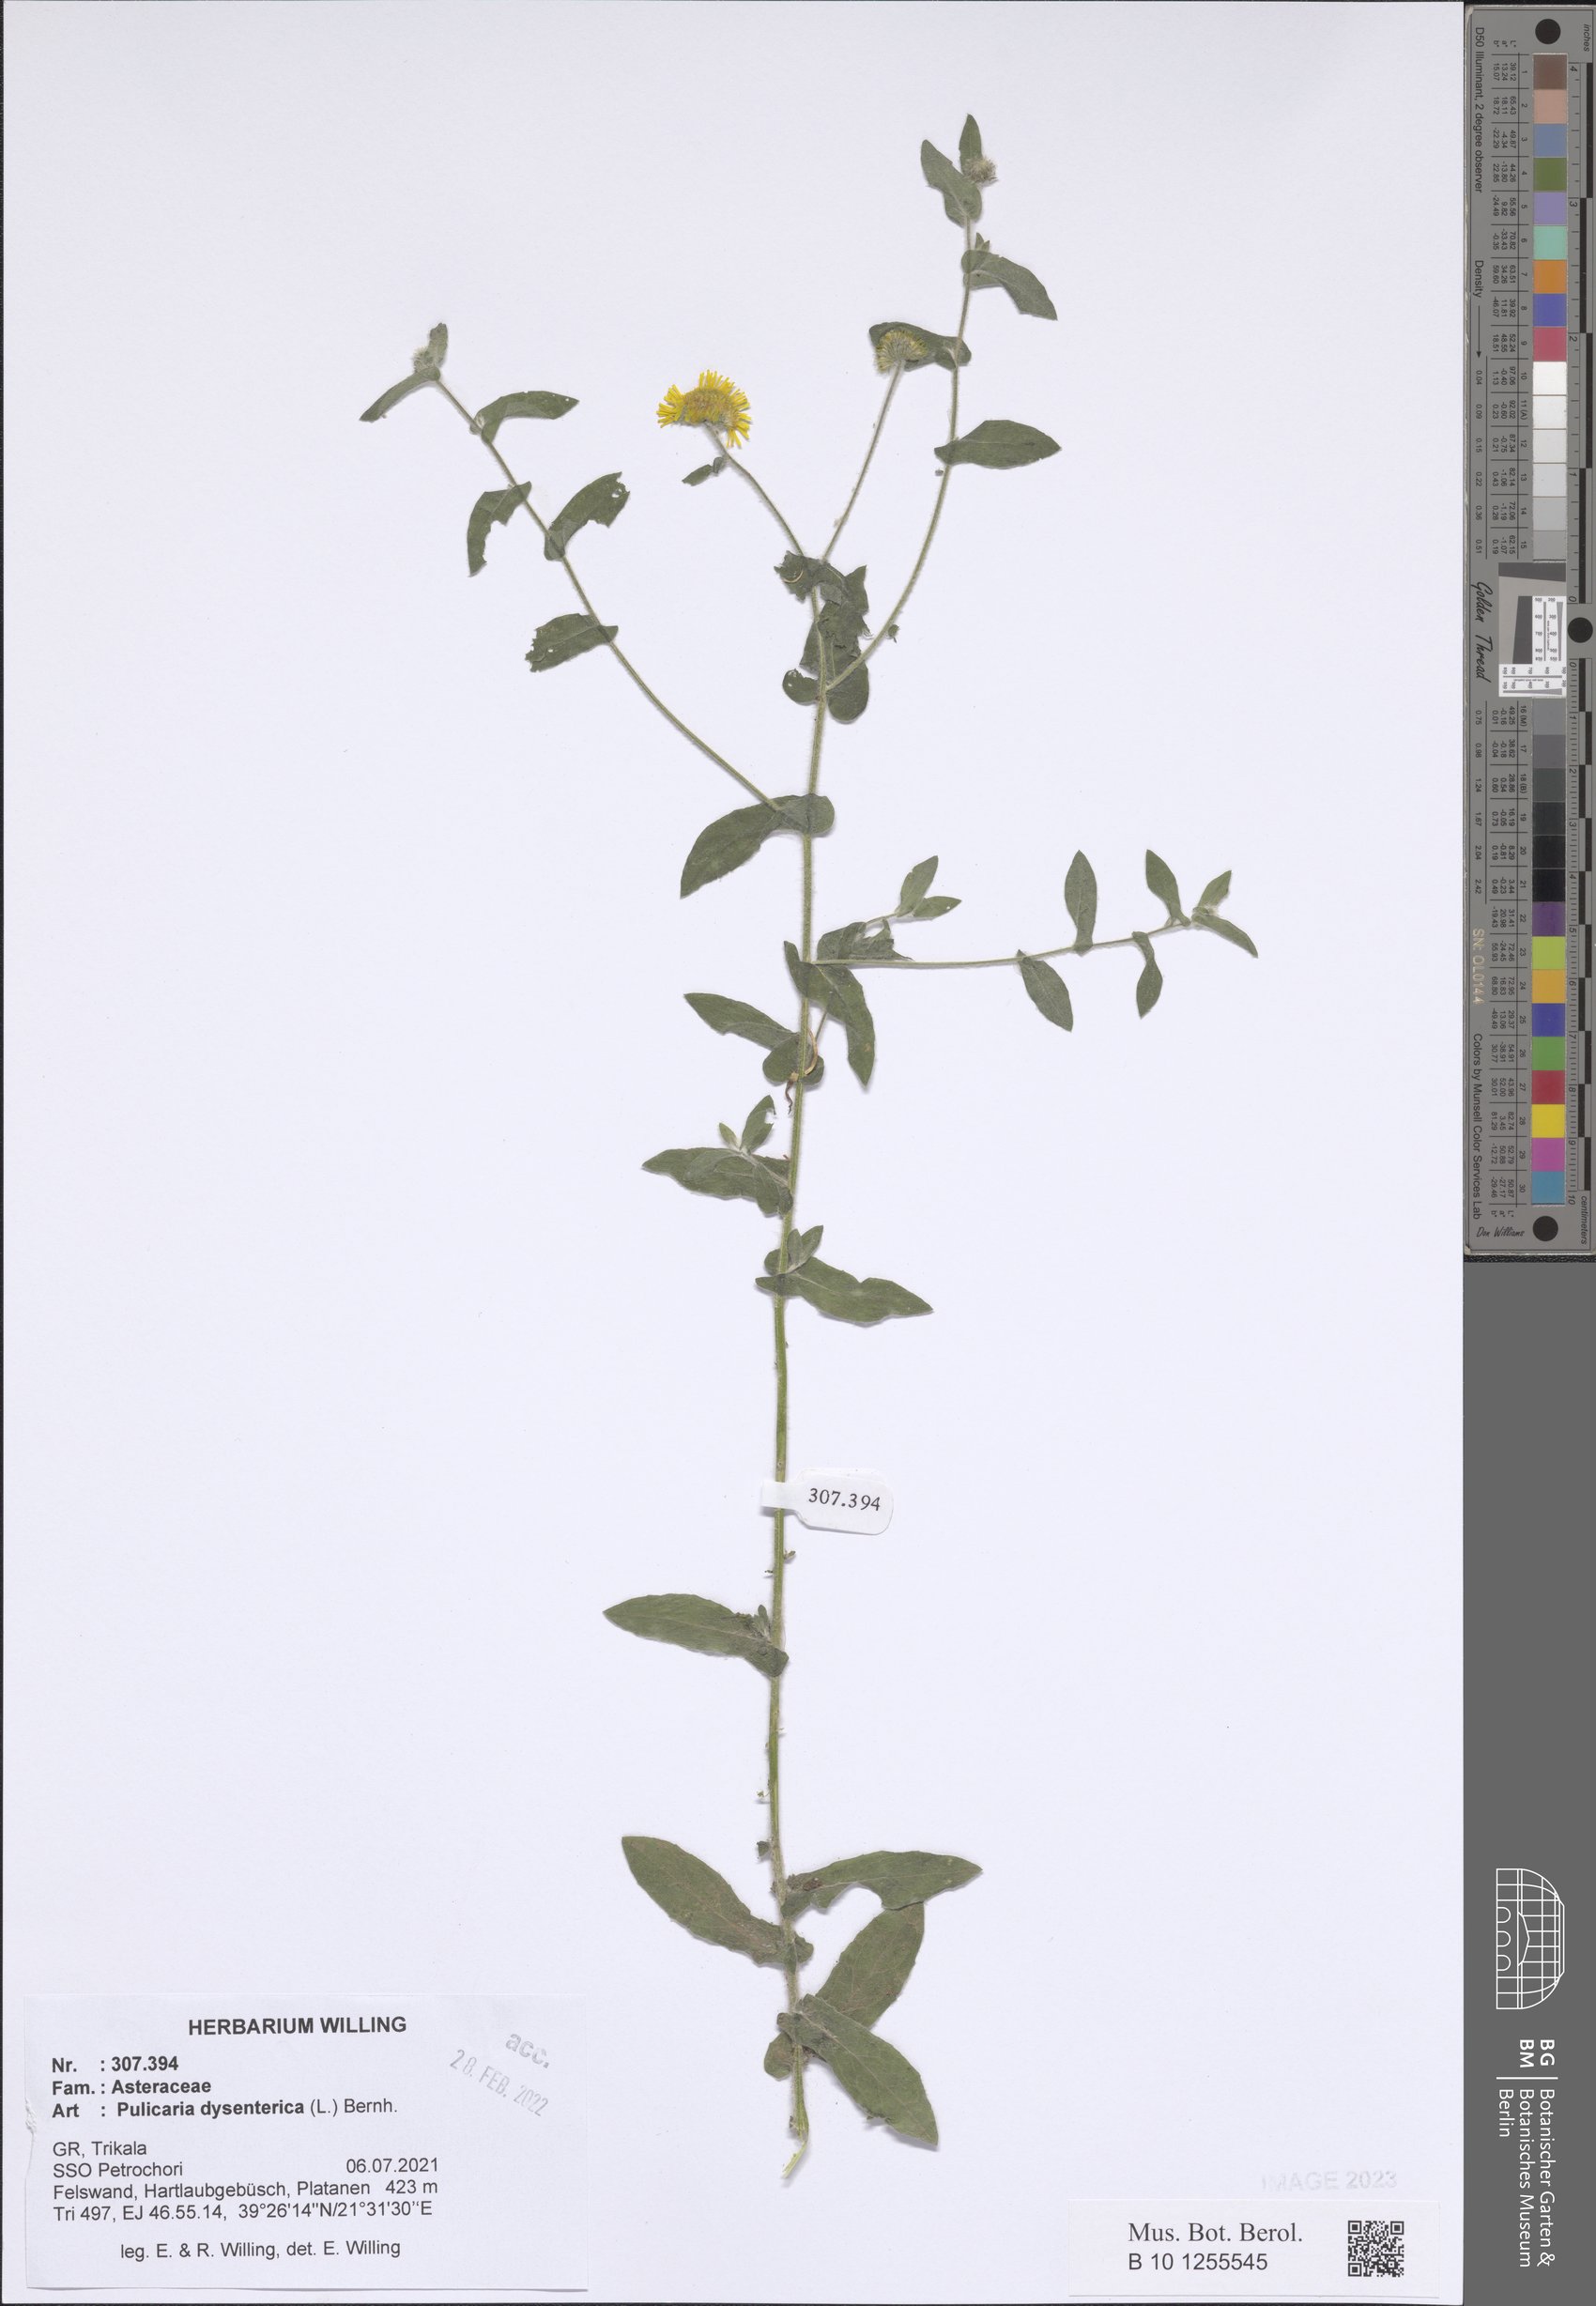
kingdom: Plantae
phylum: Tracheophyta
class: Magnoliopsida
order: Asterales
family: Asteraceae
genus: Pulicaria
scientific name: Pulicaria dysenterica
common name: Common fleabane
